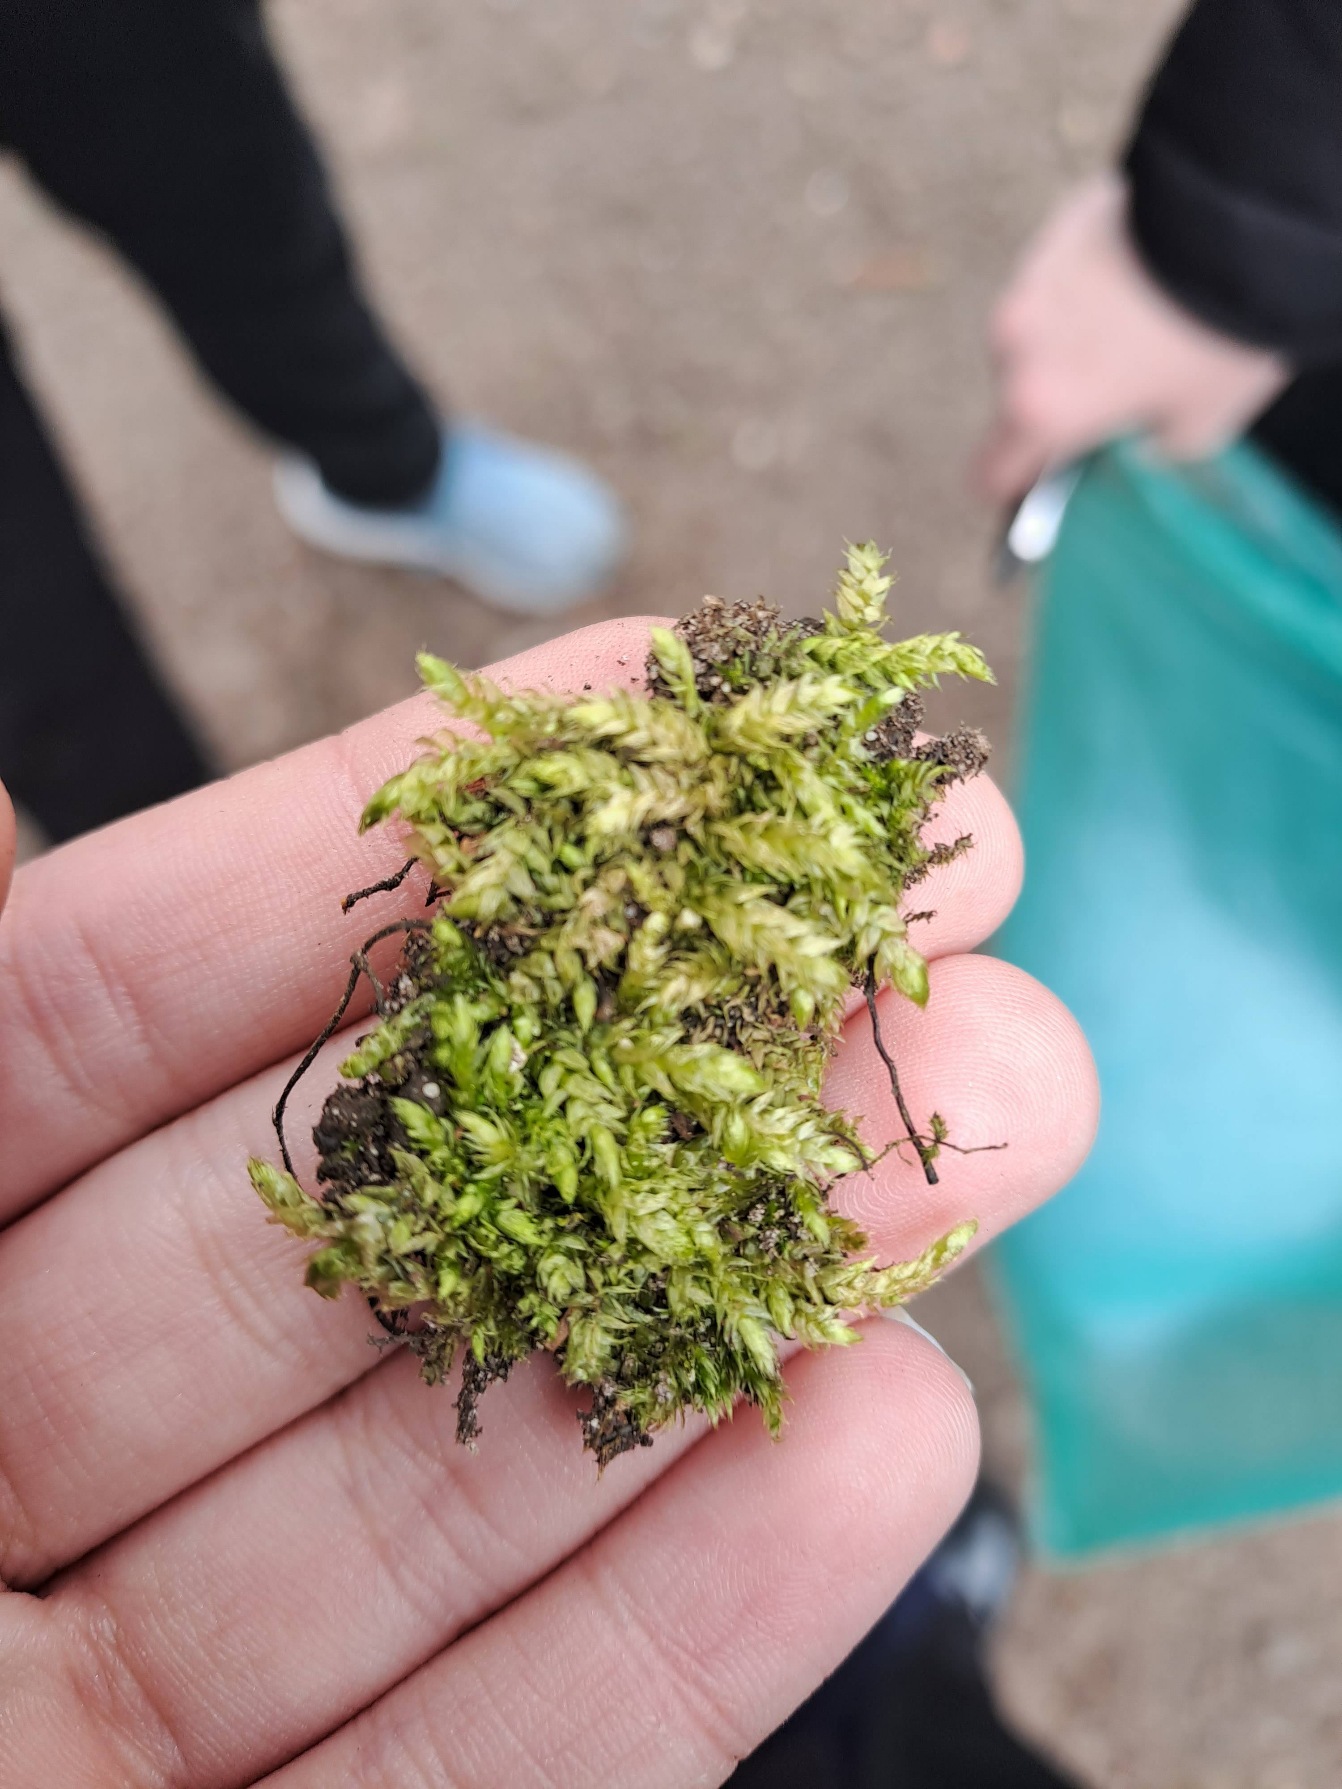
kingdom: Plantae
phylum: Bryophyta
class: Bryopsida
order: Hypnales
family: Brachytheciaceae
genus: Brachythecium
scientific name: Brachythecium rutabulum
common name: Almindelig kortkapsel
